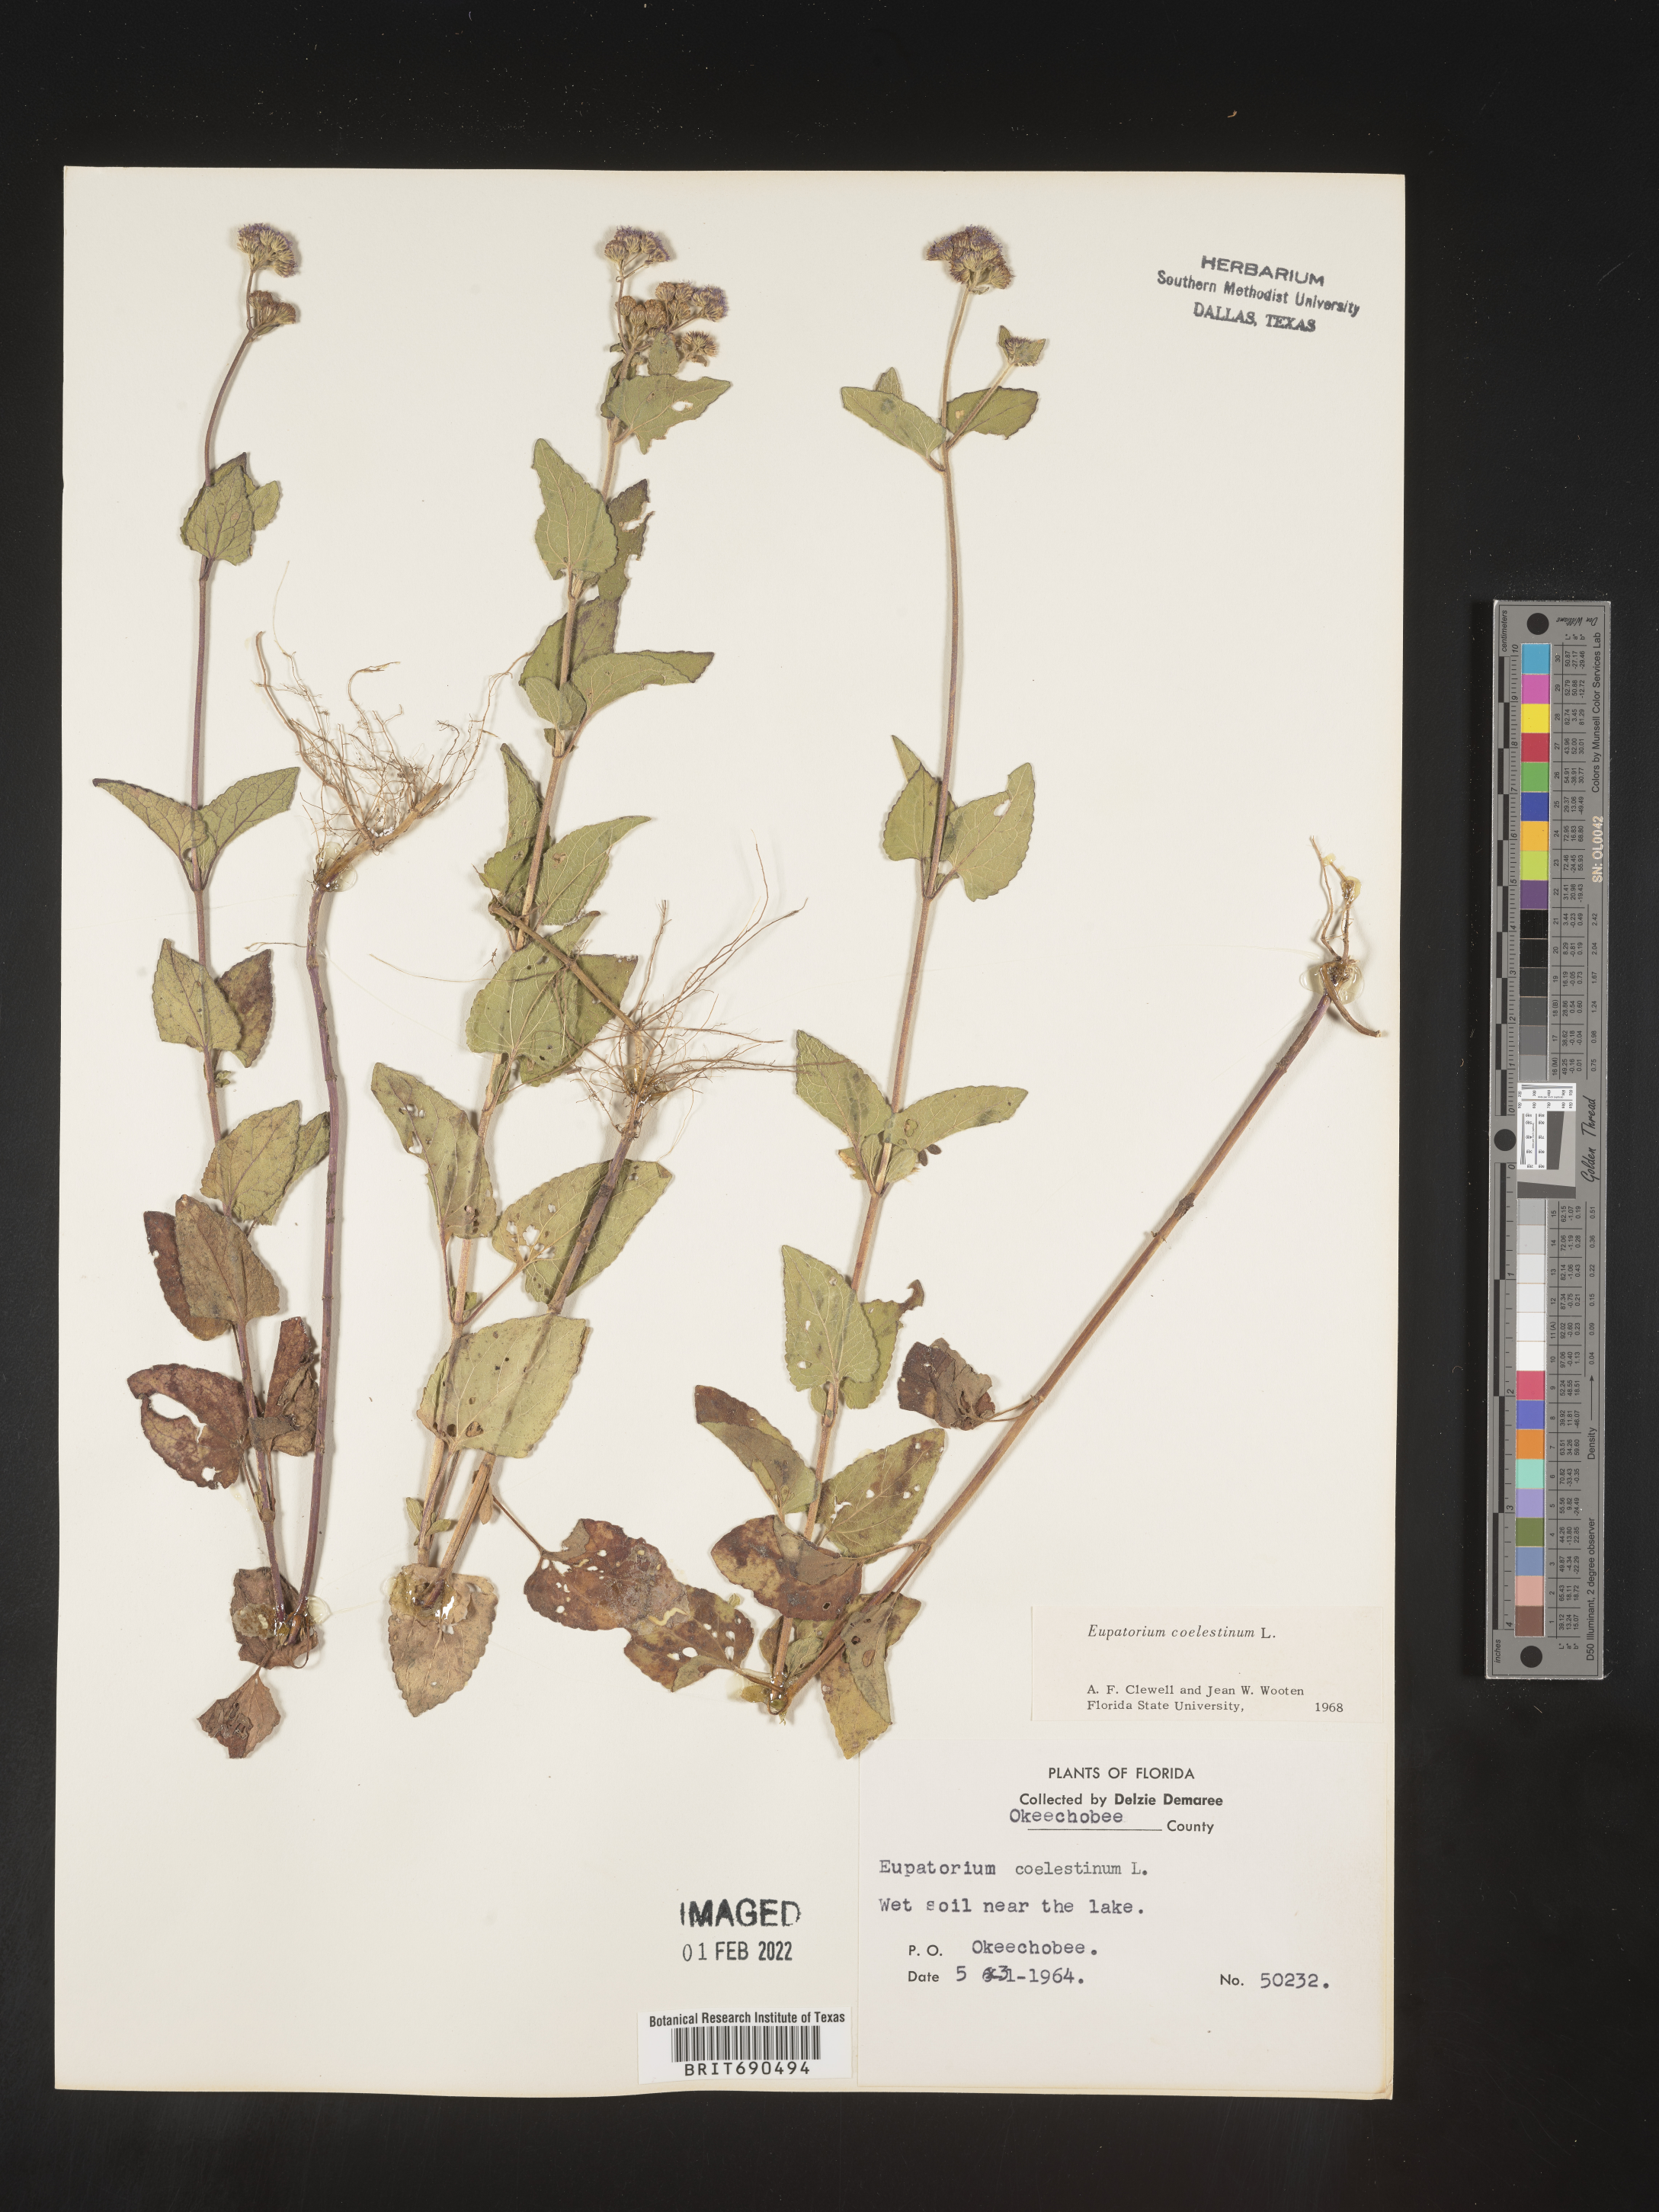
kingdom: Plantae
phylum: Tracheophyta
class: Magnoliopsida
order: Asterales
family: Asteraceae
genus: Conoclinium
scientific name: Conoclinium coelestinum
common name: Blue mistflower
